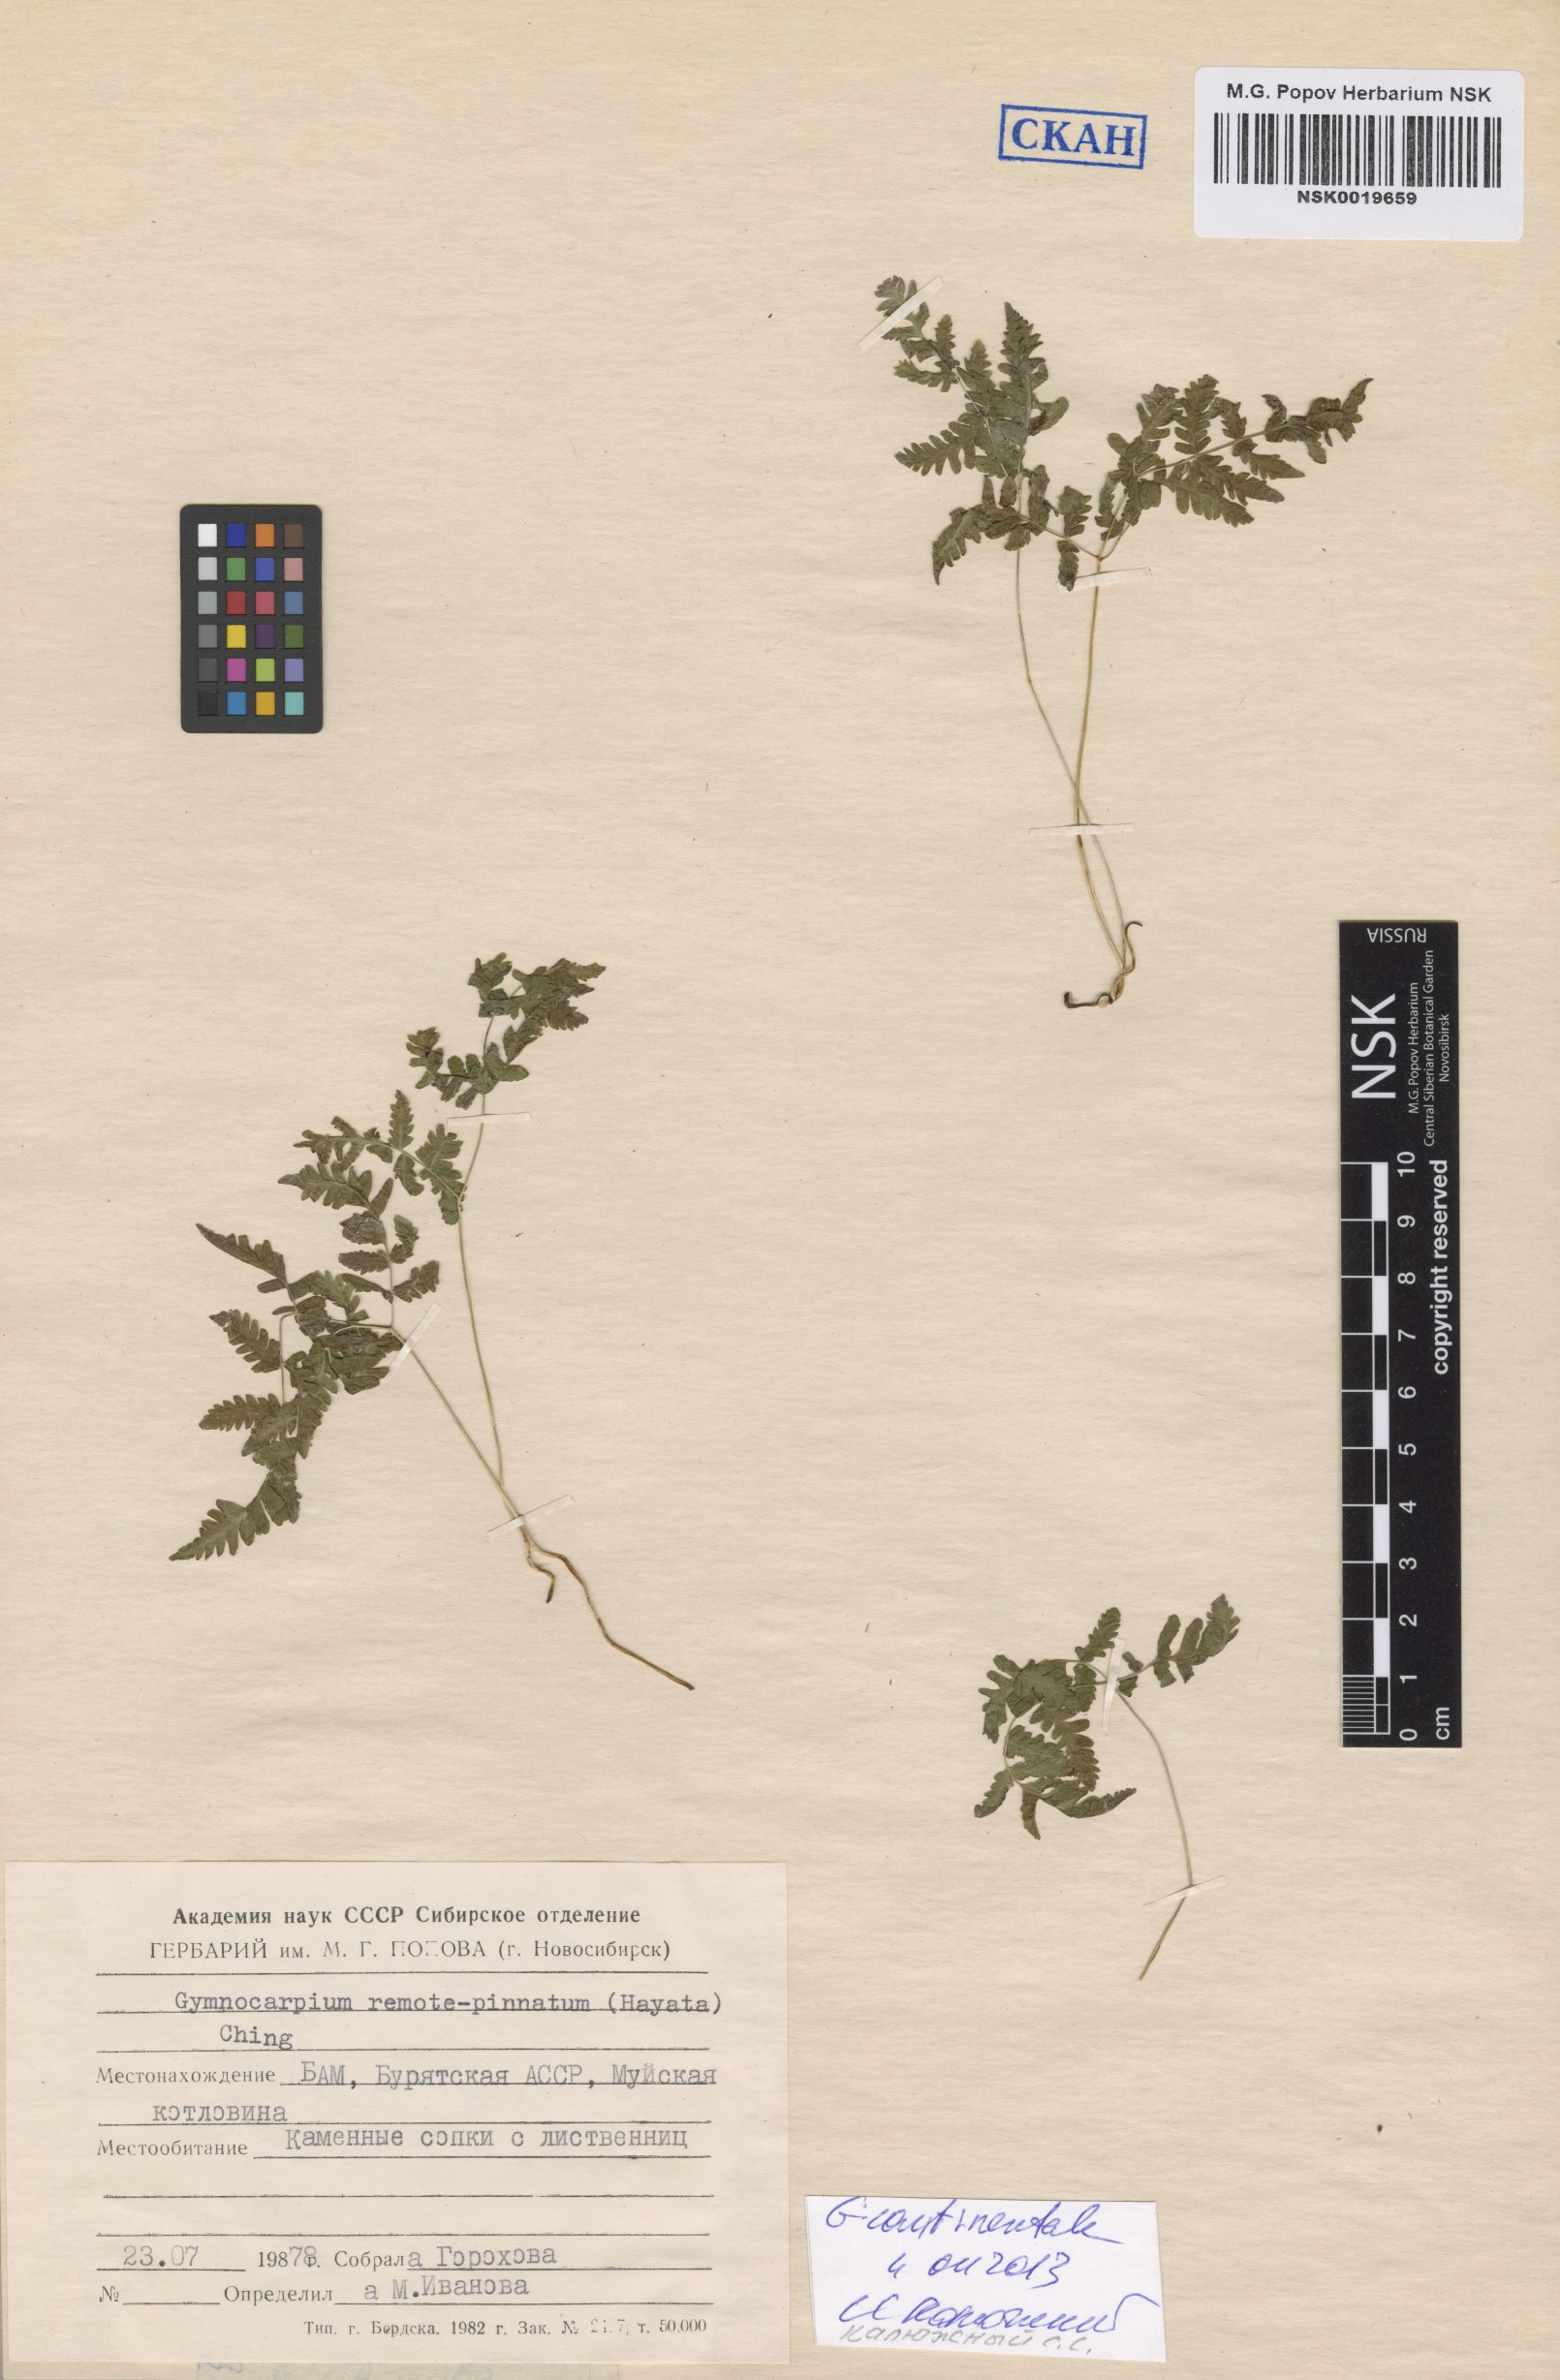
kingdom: Plantae
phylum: Tracheophyta
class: Polypodiopsida
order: Polypodiales
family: Cystopteridaceae
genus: Gymnocarpium
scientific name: Gymnocarpium continentale
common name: Asian oak fern
